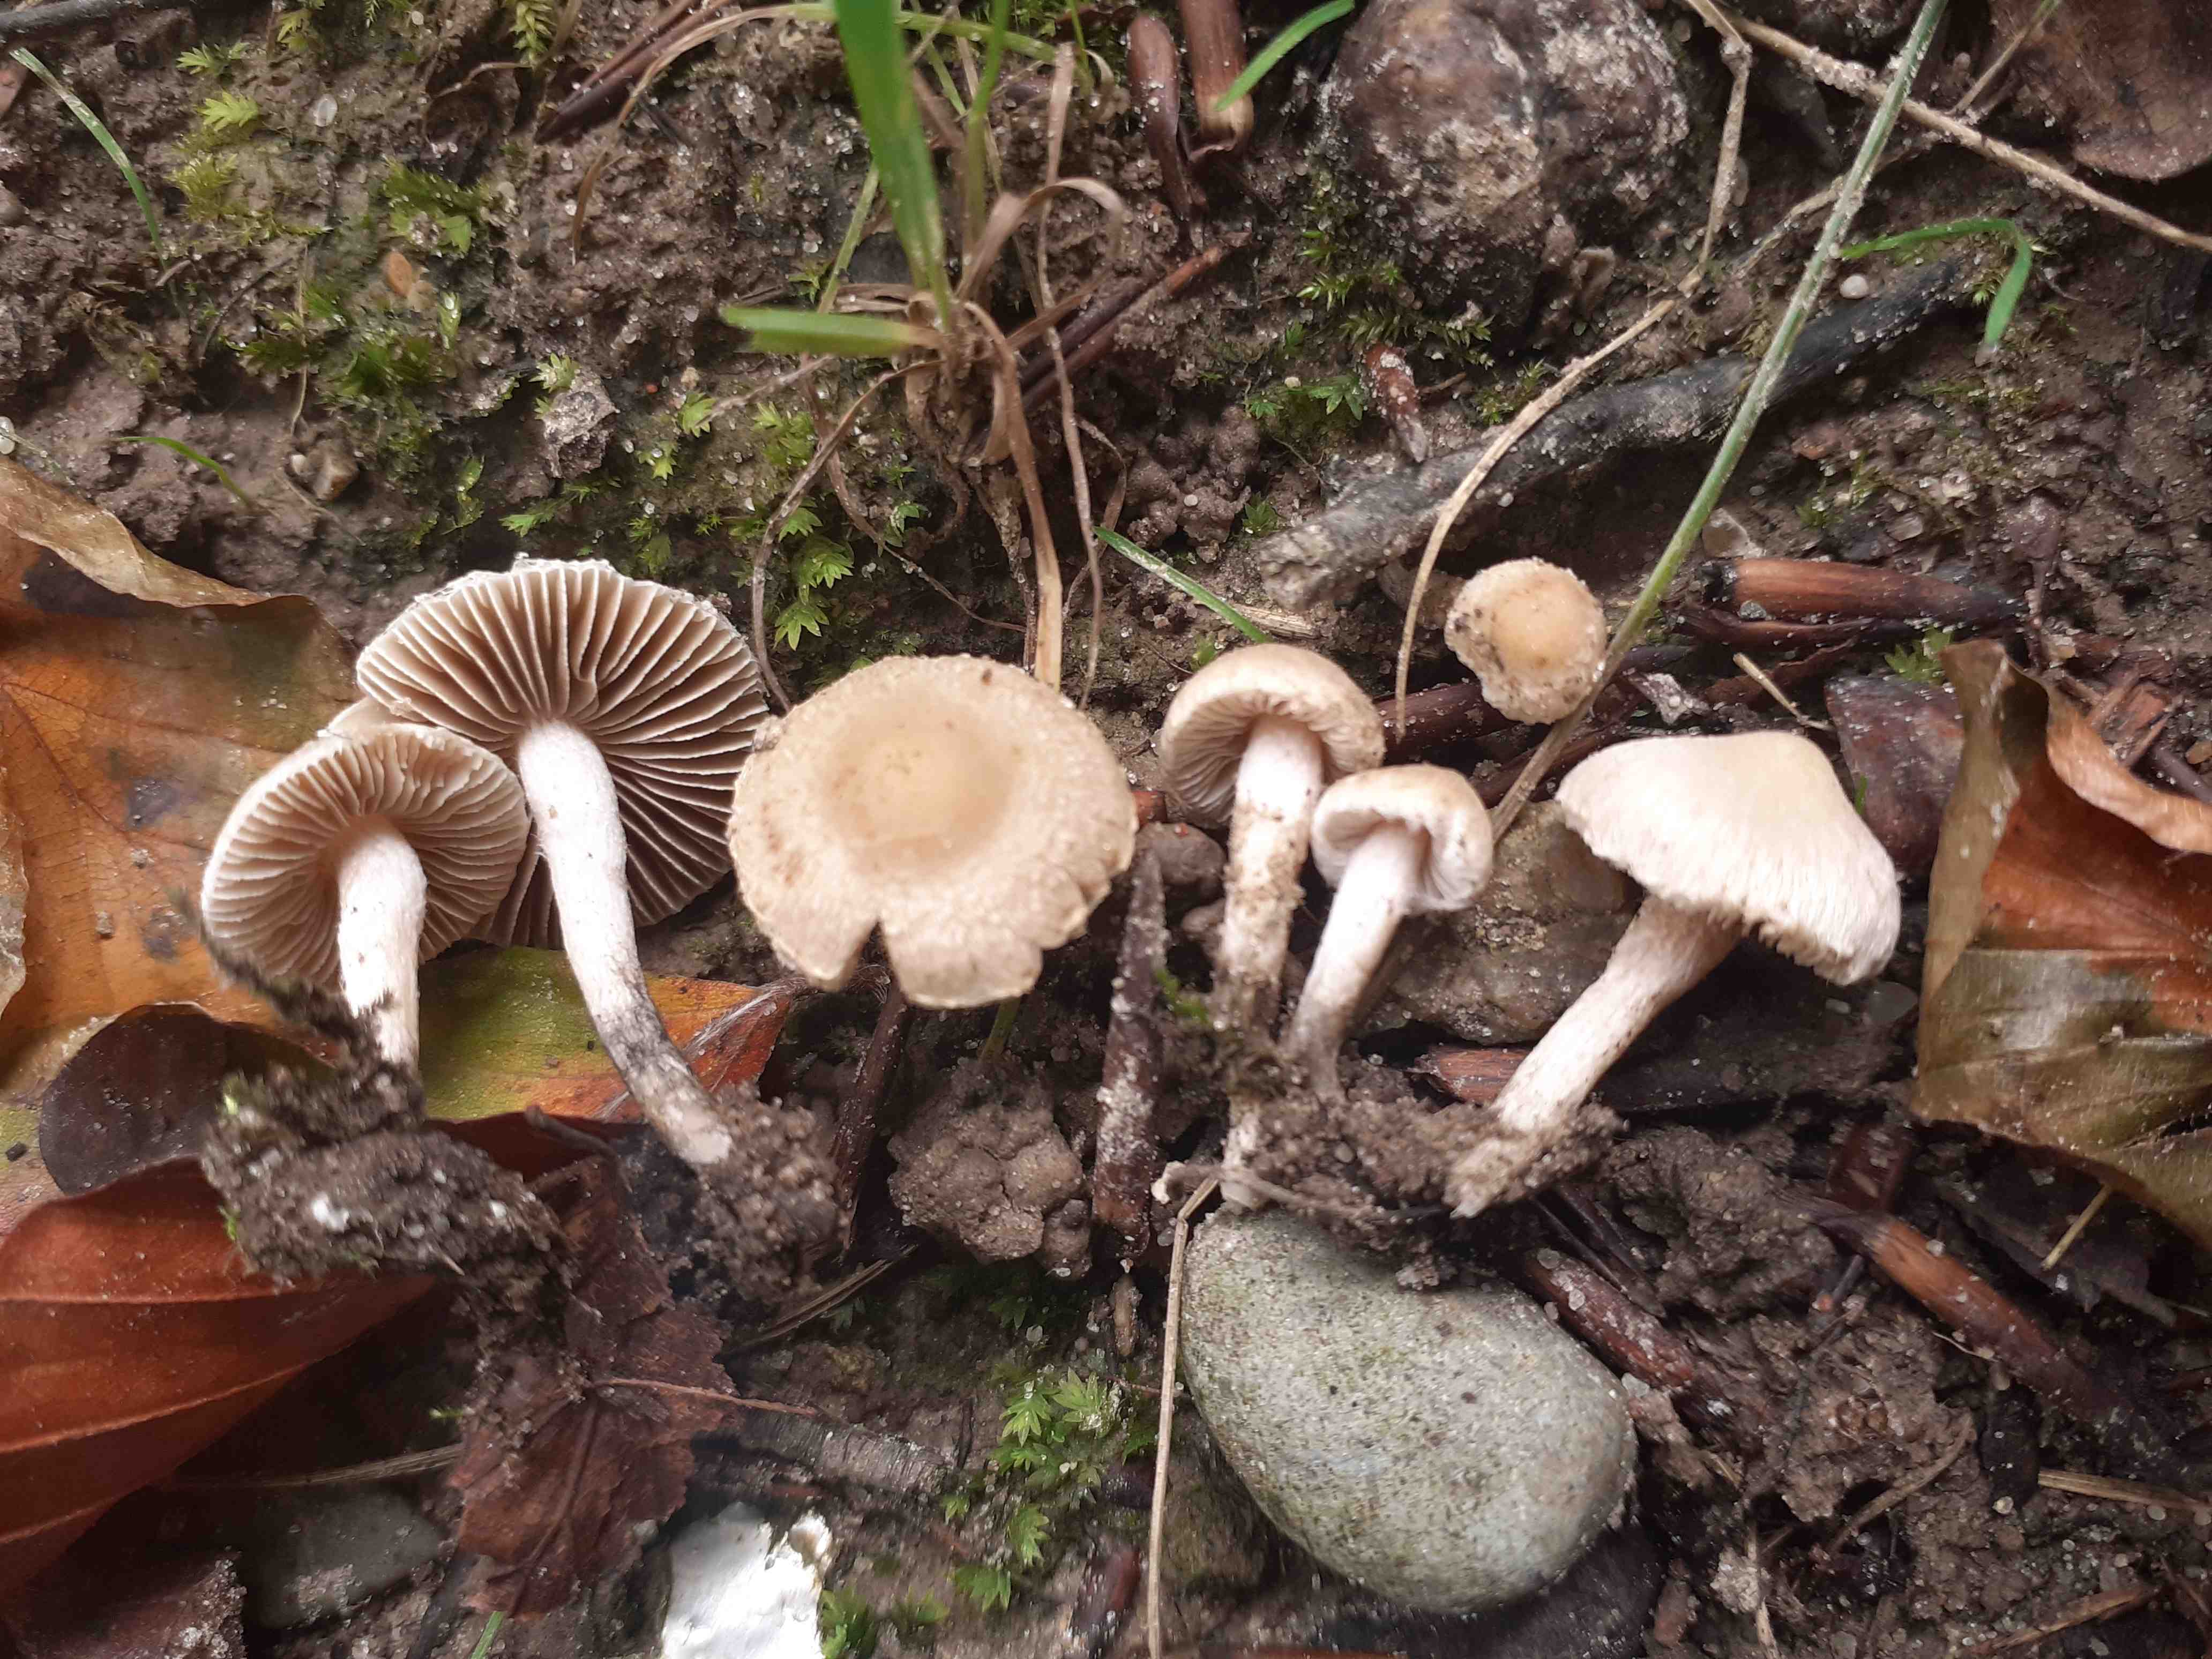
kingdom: Fungi
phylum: Basidiomycota
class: Agaricomycetes
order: Agaricales
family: Inocybaceae
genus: Inocybe
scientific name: Inocybe huijsmanii
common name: rosazonet trævlhat
